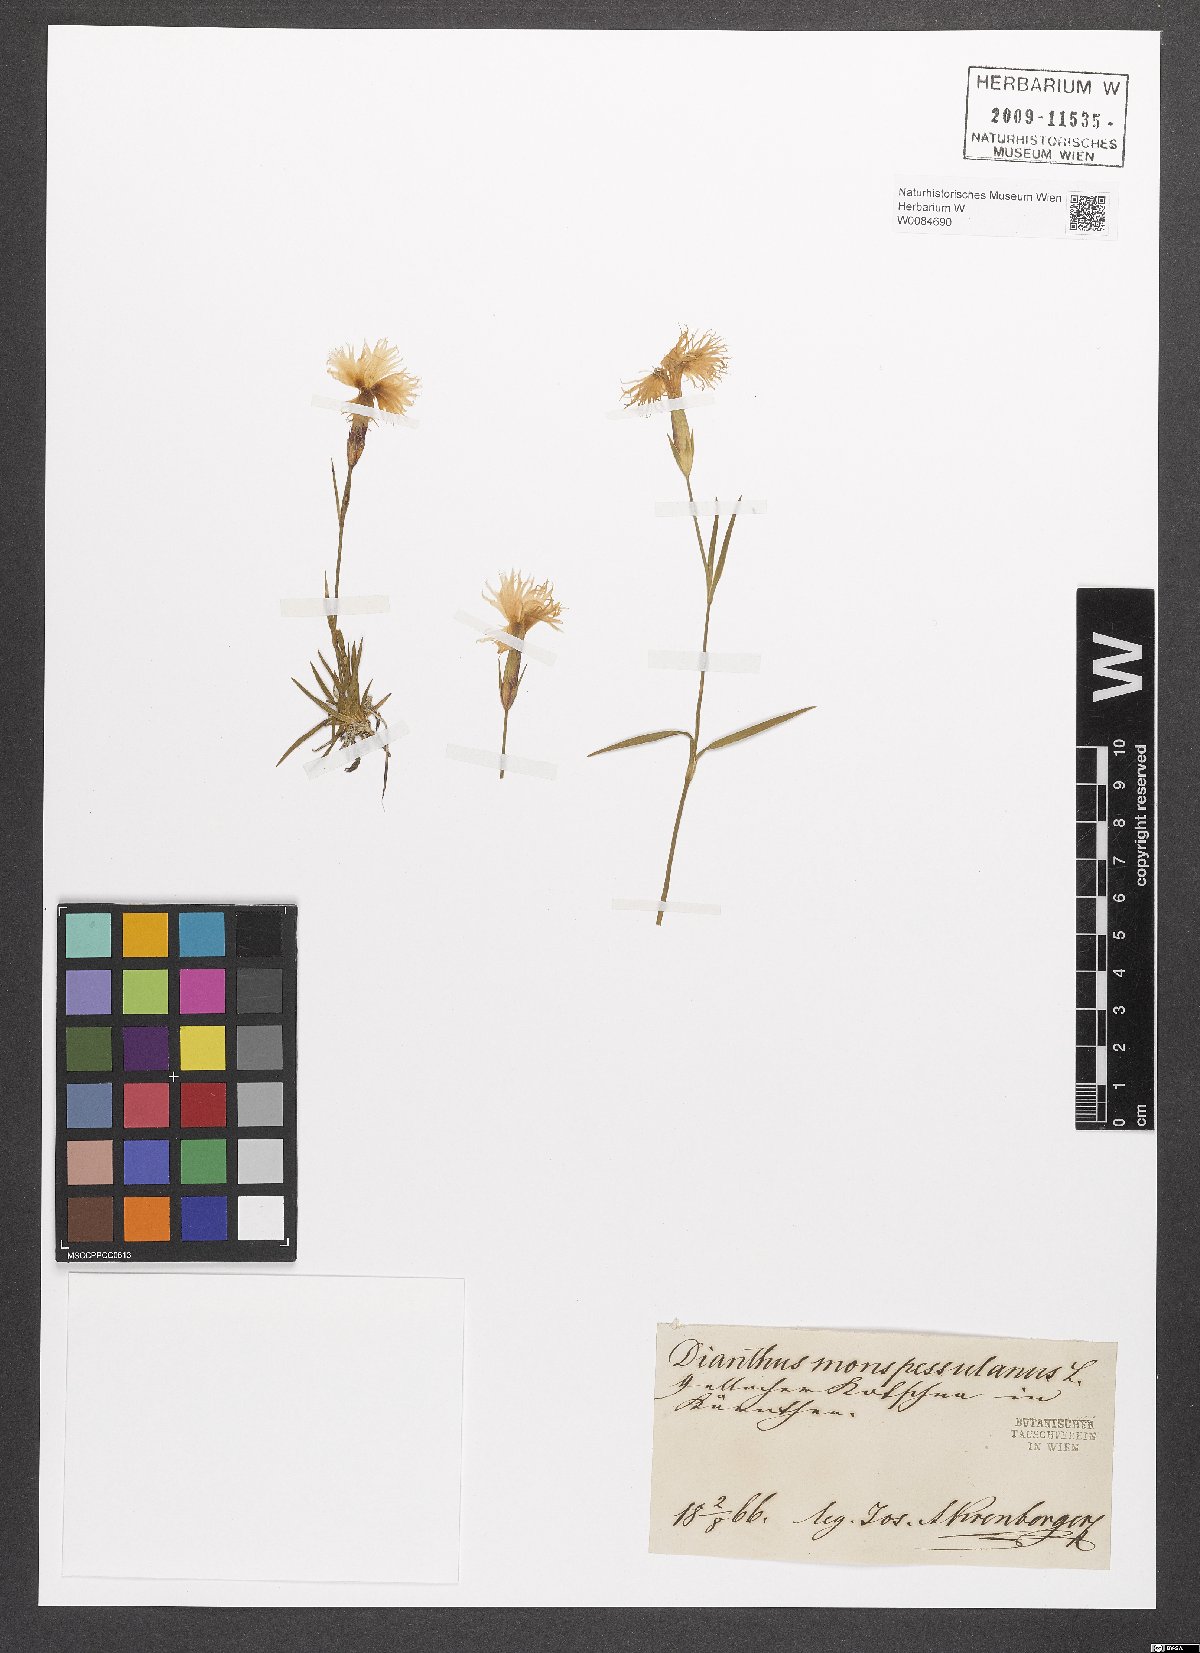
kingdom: Plantae
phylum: Tracheophyta
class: Magnoliopsida
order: Caryophyllales
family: Caryophyllaceae
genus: Dianthus
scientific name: Dianthus hyssopifolius
